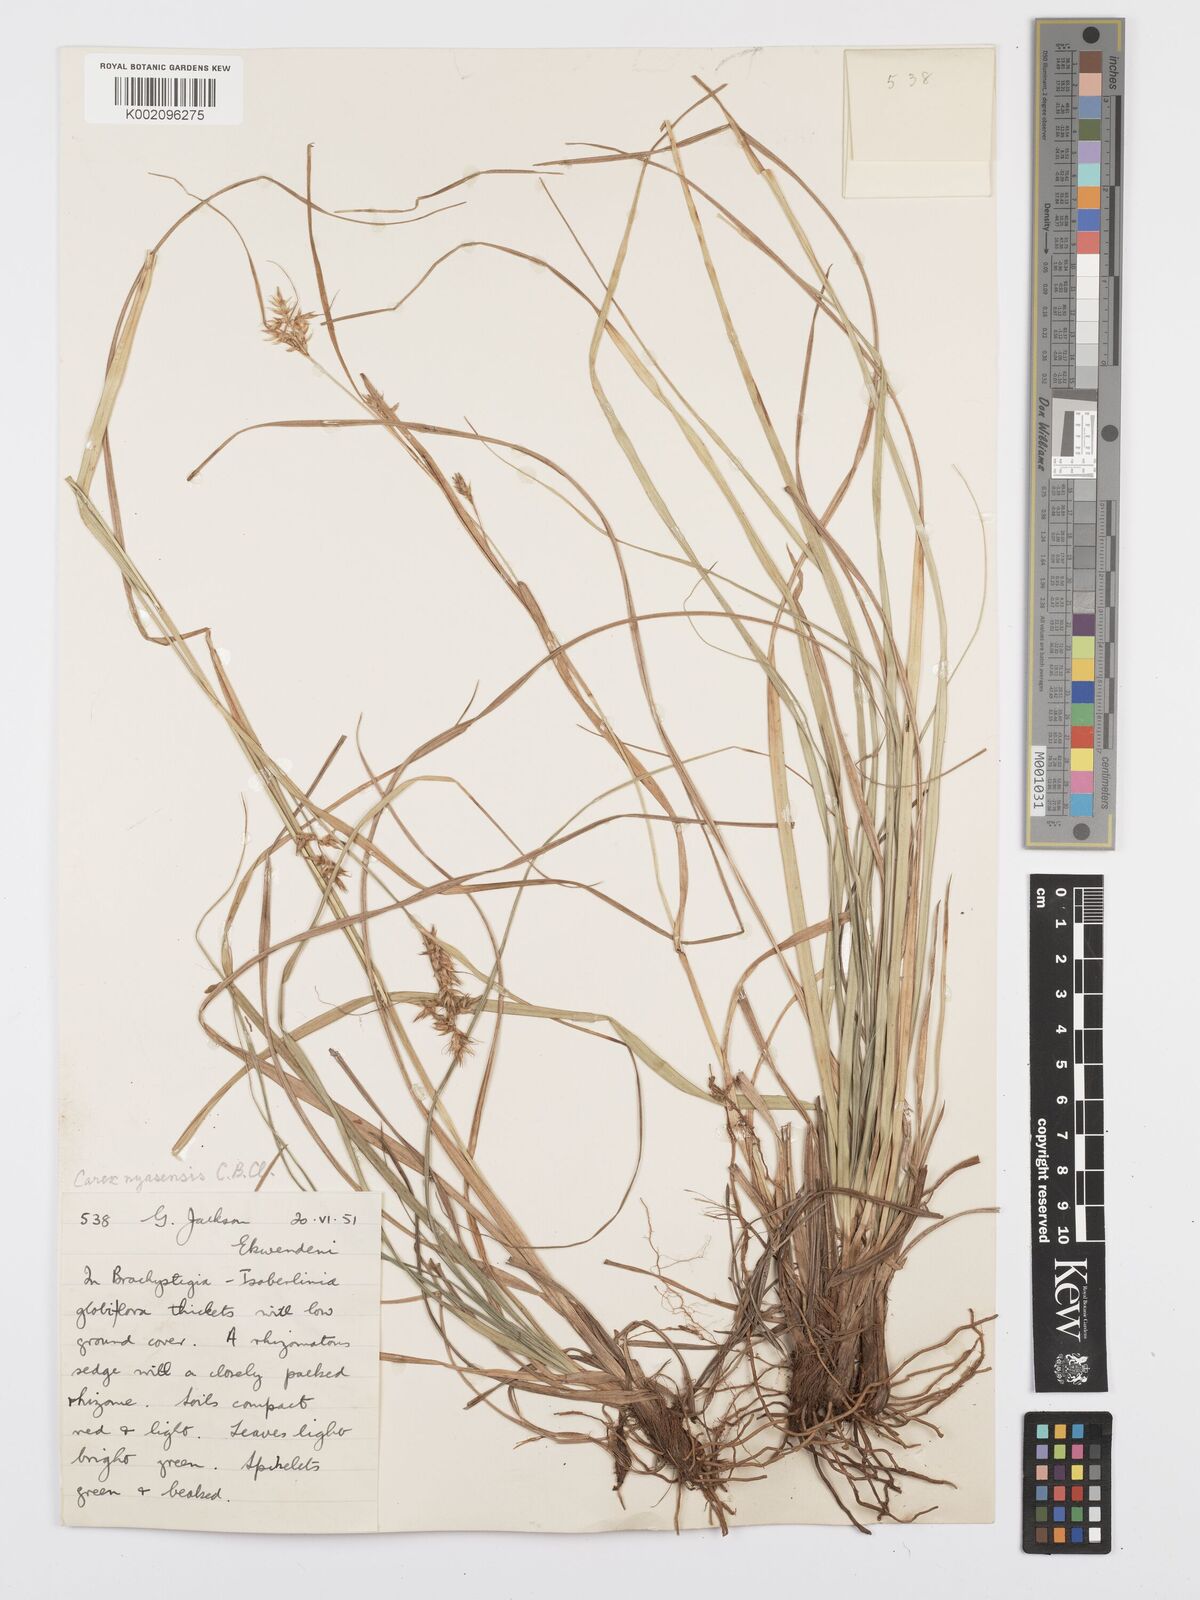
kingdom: Plantae
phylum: Tracheophyta
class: Liliopsida
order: Poales
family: Cyperaceae
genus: Carex
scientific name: Carex spicatopaniculata
